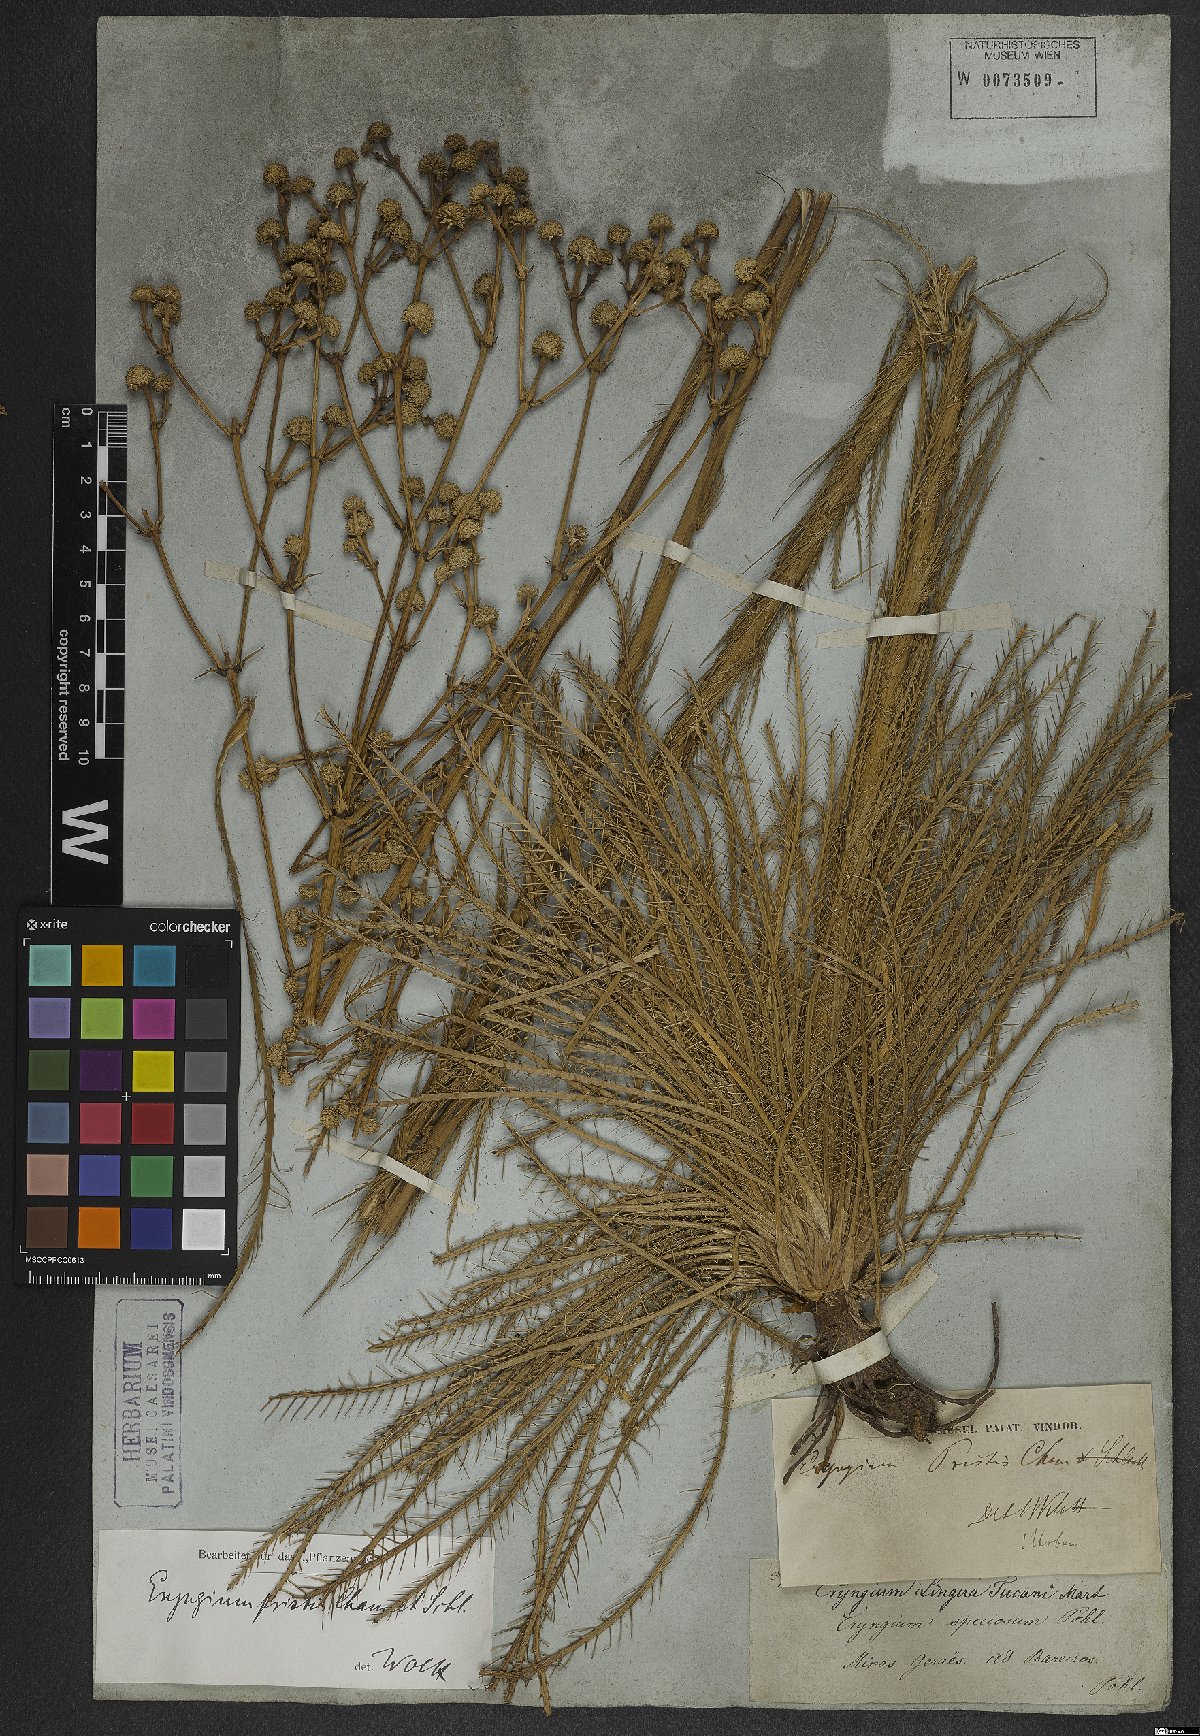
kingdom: Plantae
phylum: Tracheophyta
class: Magnoliopsida
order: Apiales
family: Apiaceae
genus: Eryngium
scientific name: Eryngium pristis
